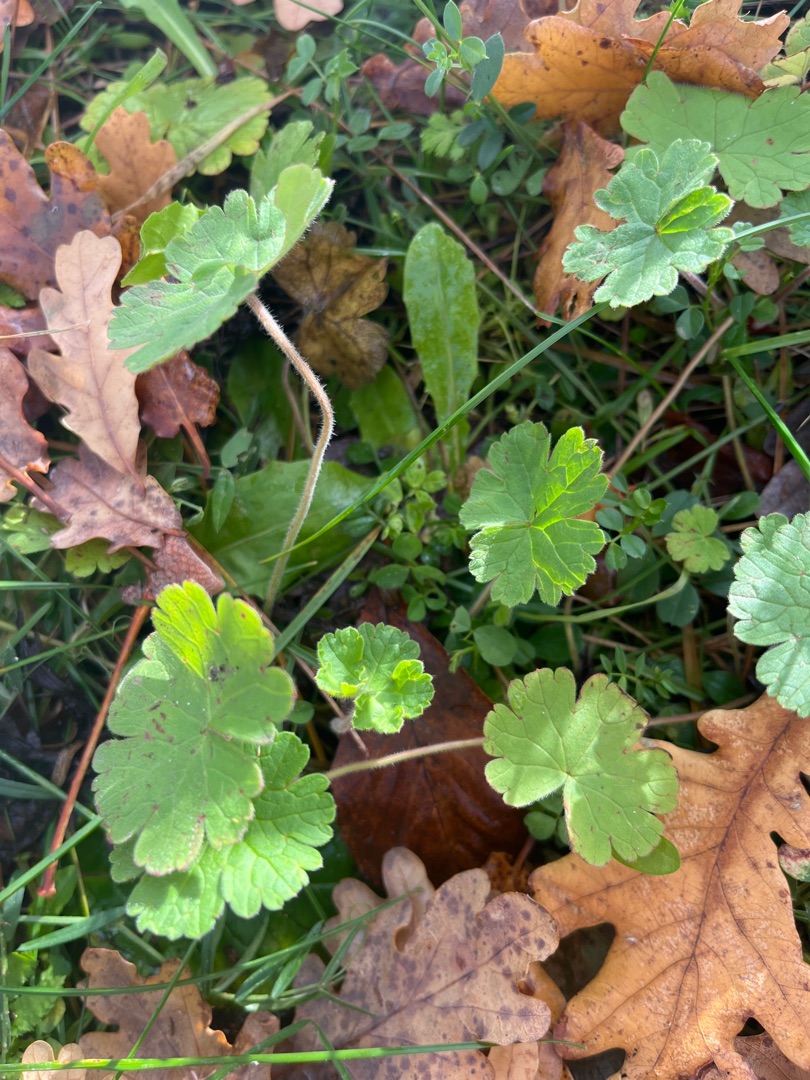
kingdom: Plantae
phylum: Tracheophyta
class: Magnoliopsida
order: Geraniales
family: Geraniaceae
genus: Geranium
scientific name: Geranium rotundifolium
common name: Rundbladet storkenæb
